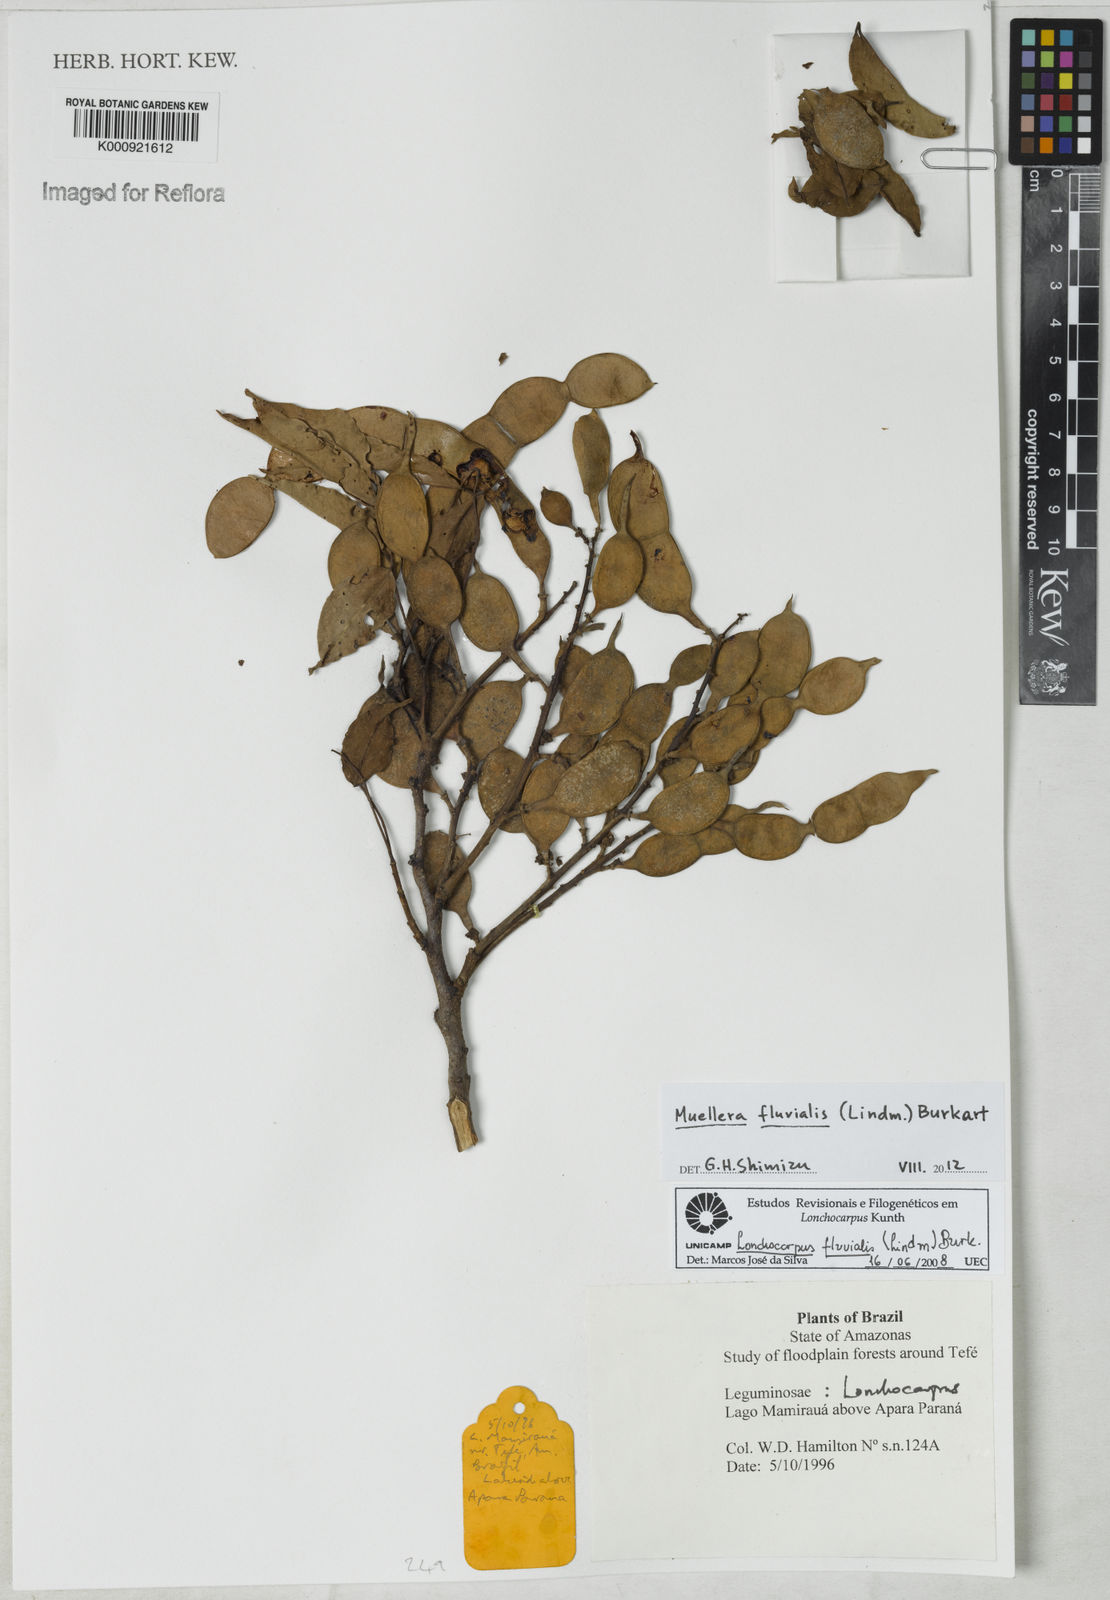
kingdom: Plantae
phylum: Tracheophyta
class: Magnoliopsida
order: Fabales
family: Fabaceae
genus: Muellera
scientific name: Muellera fluvialis
